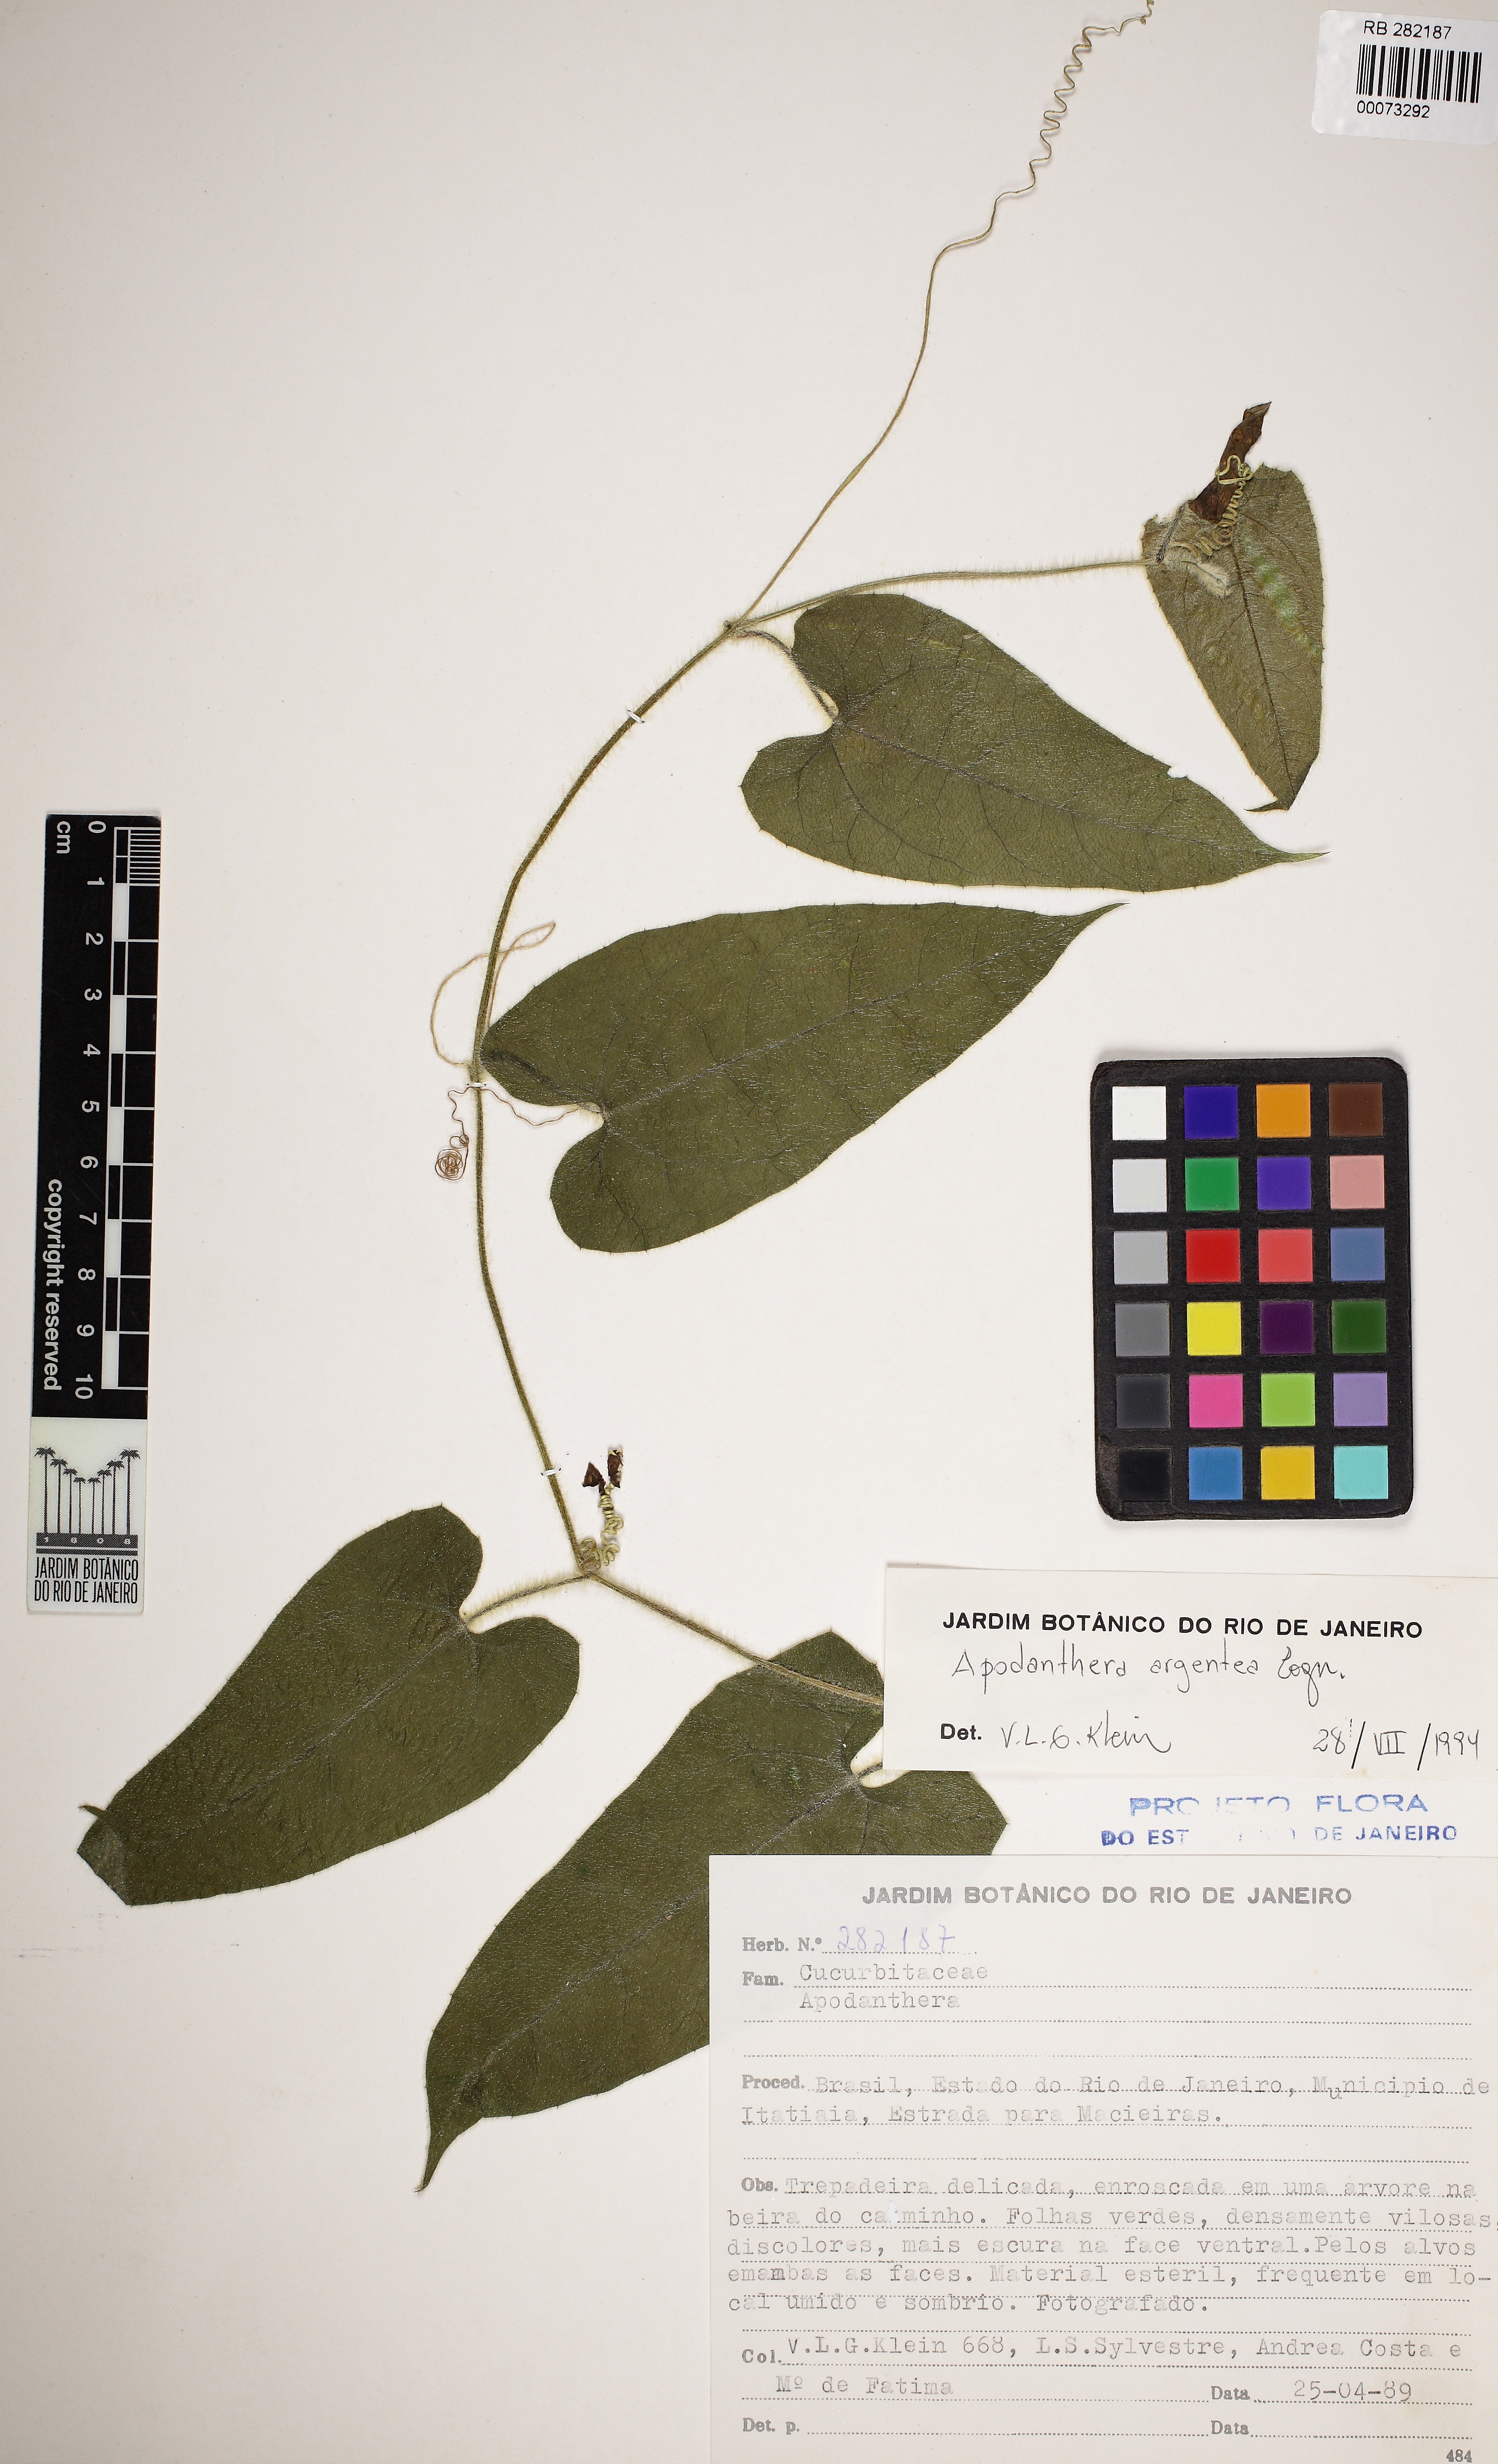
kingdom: Plantae
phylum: Tracheophyta
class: Magnoliopsida
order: Cucurbitales
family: Cucurbitaceae
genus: Apodanthera
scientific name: Apodanthera argentea
